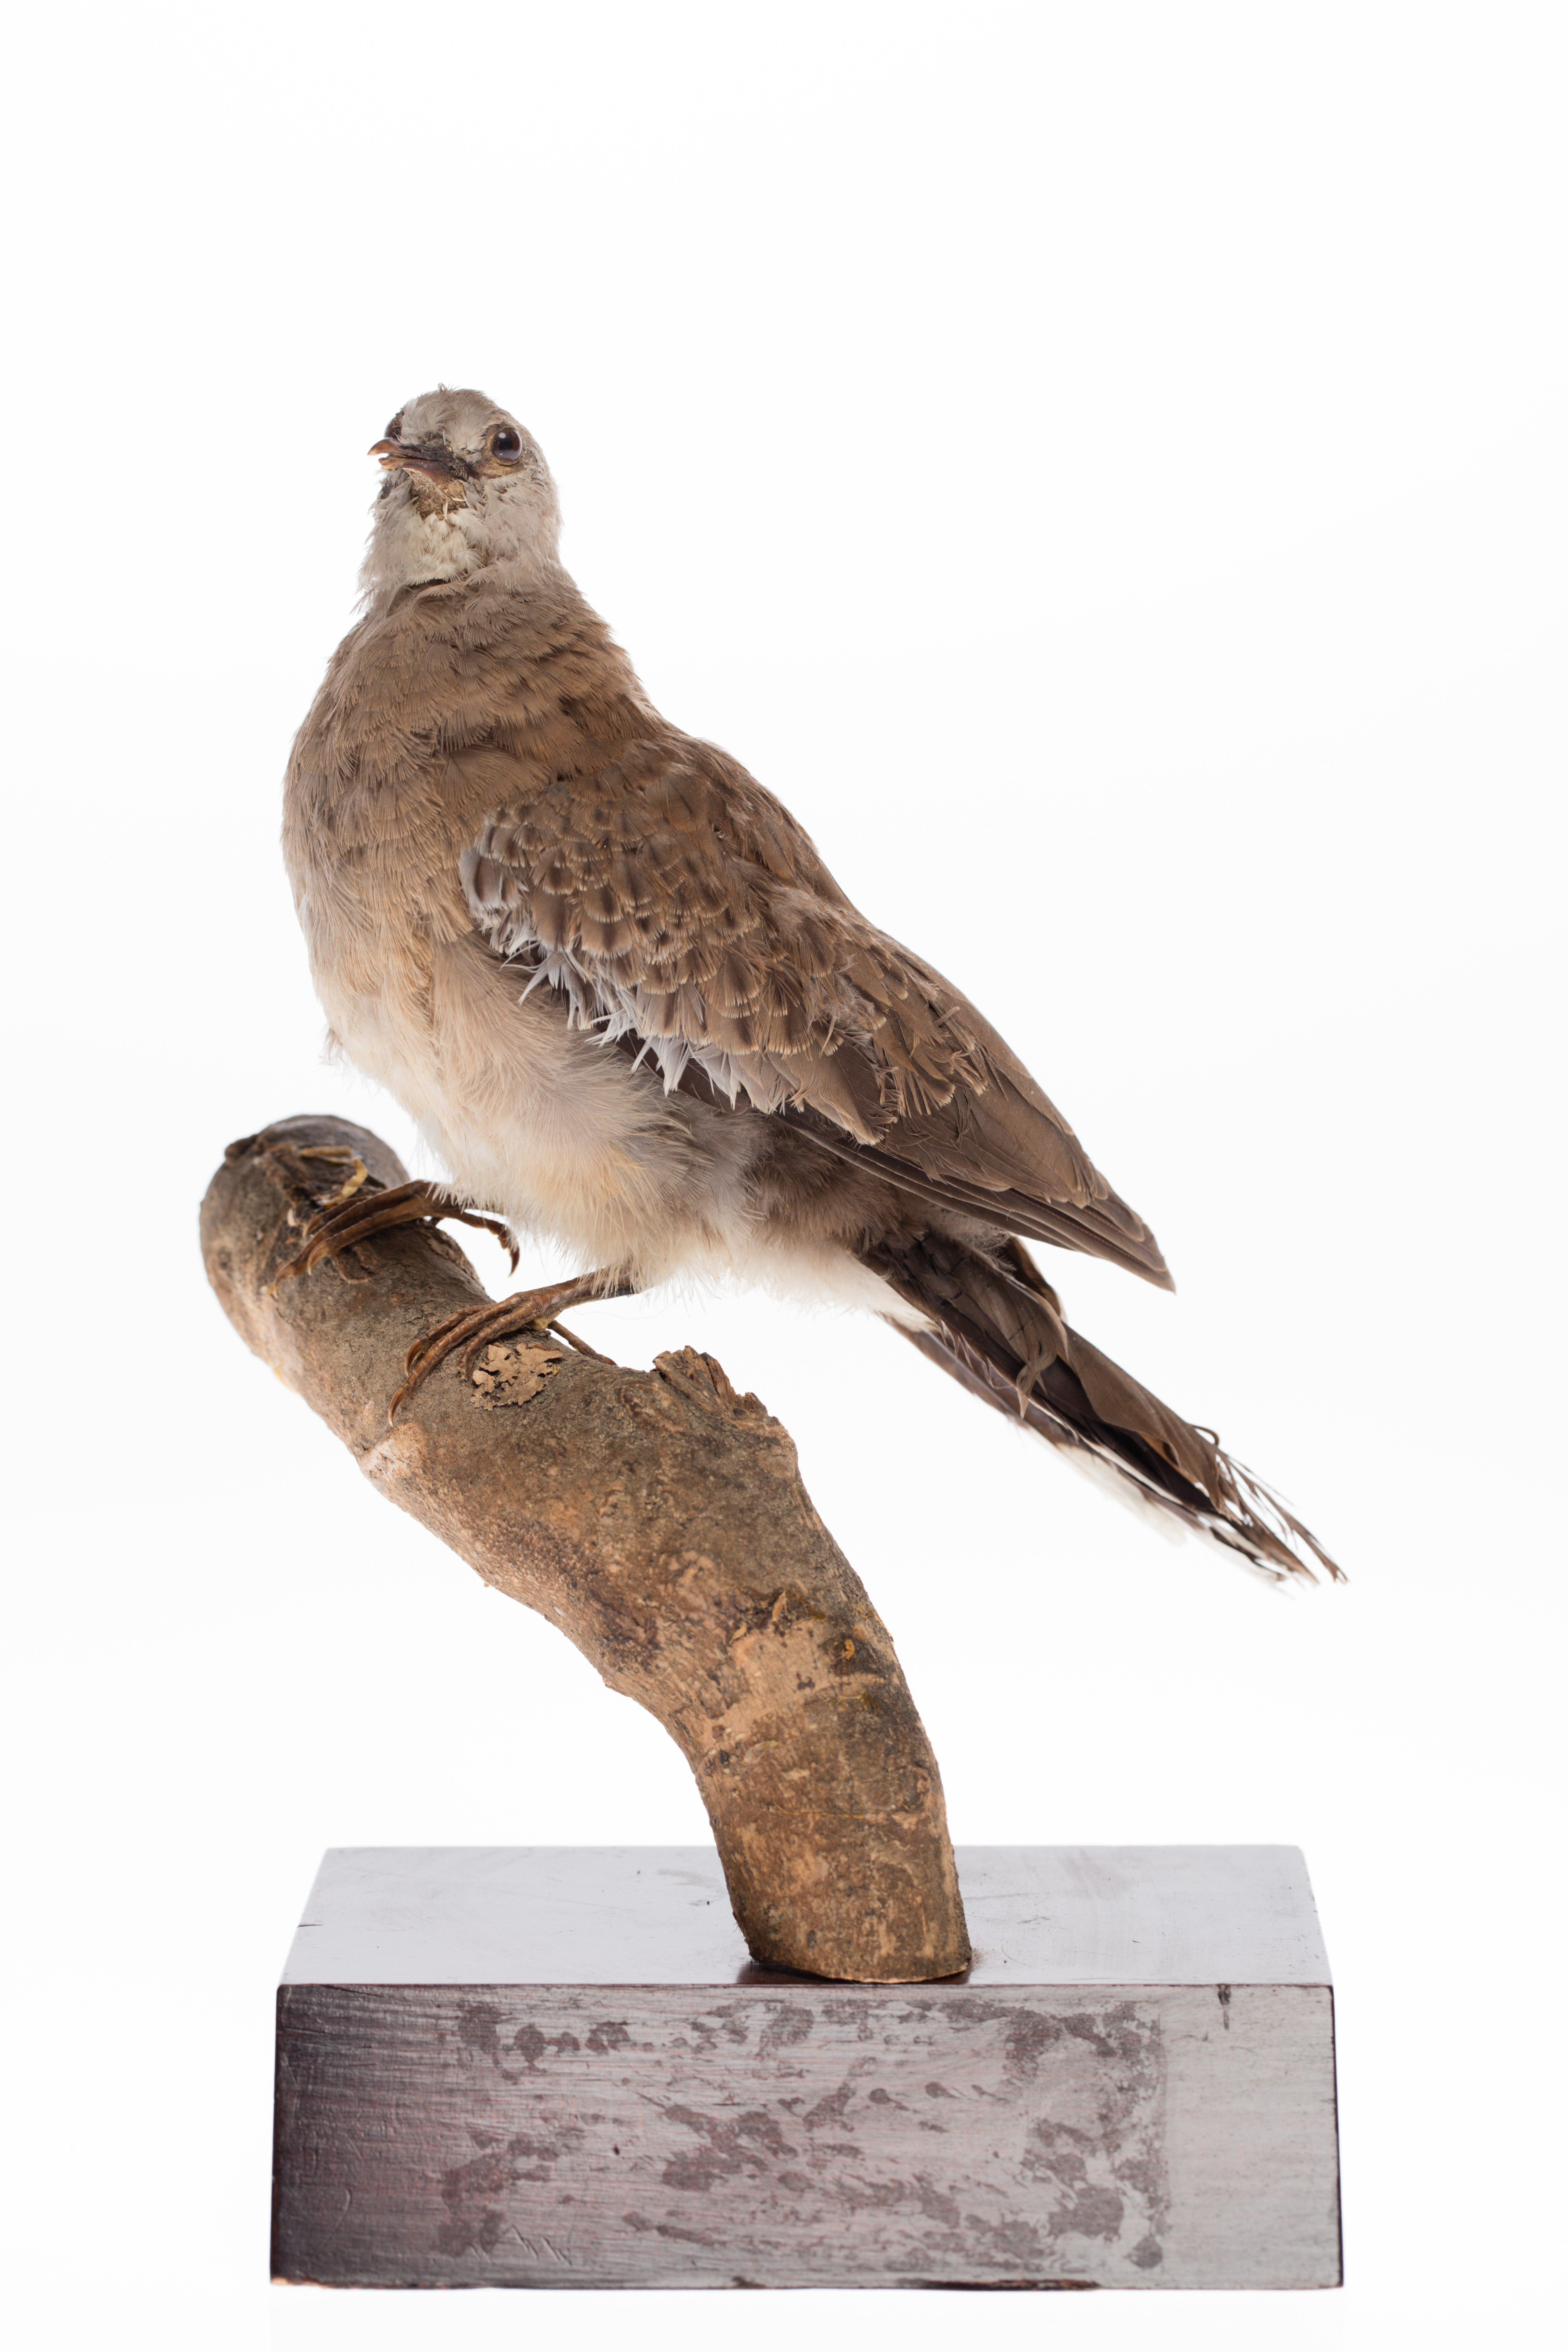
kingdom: Animalia
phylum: Chordata
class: Aves
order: Columbiformes
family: Columbidae
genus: Spilopelia
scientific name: Spilopelia chinensis
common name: Spotted dove
